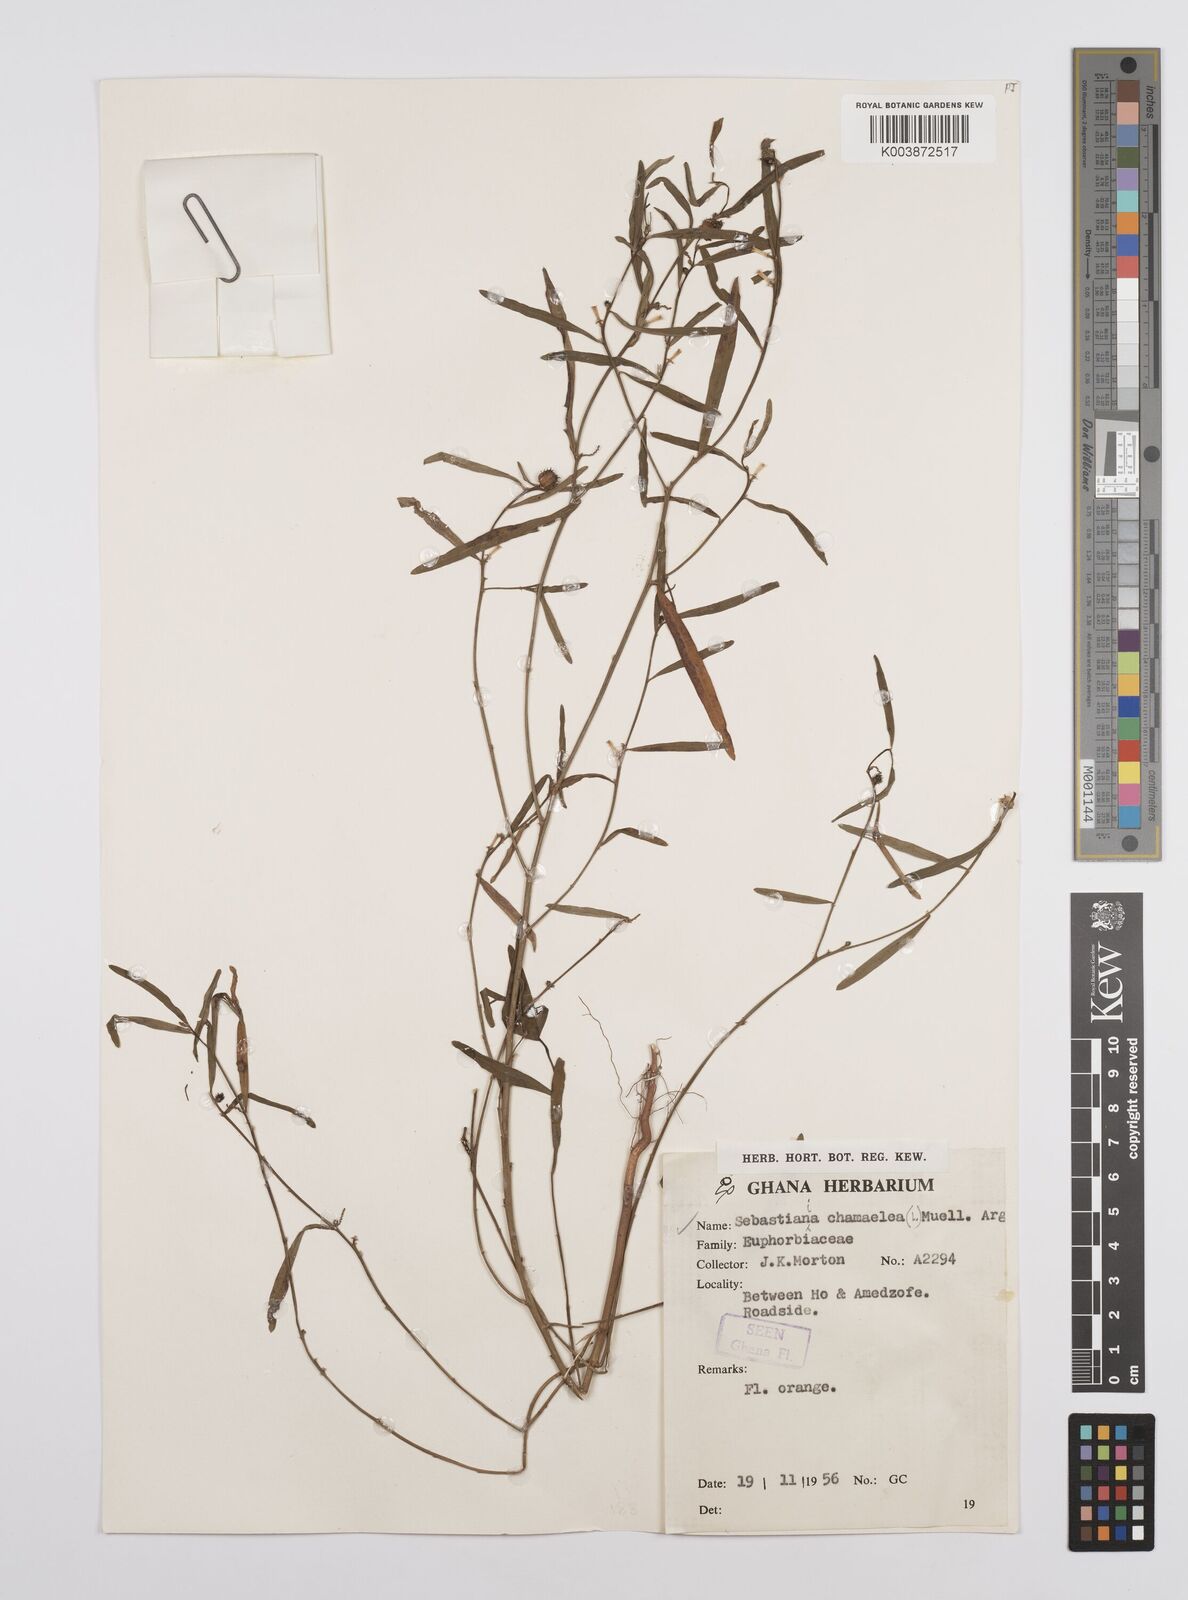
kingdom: Plantae
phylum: Tracheophyta
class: Magnoliopsida
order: Malpighiales
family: Euphorbiaceae
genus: Microstachys
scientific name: Microstachys chamaelea
